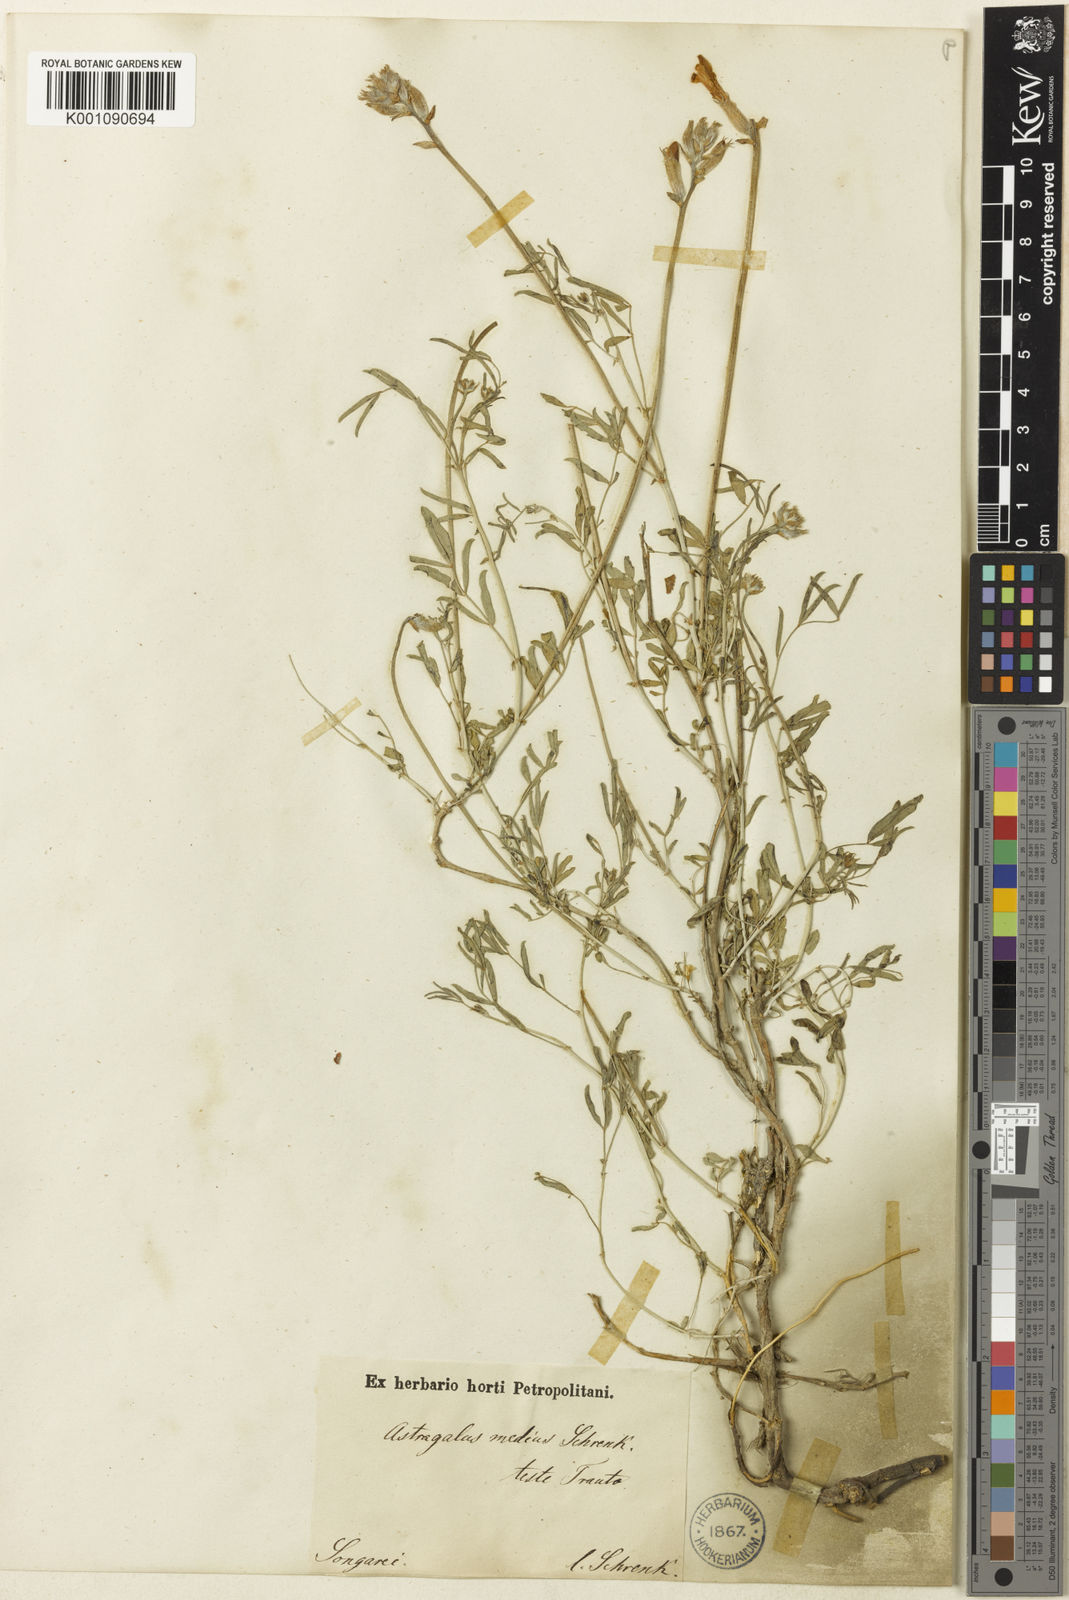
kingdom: Plantae
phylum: Tracheophyta
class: Magnoliopsida
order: Fabales
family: Fabaceae
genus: Astragalus
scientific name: Astragalus
